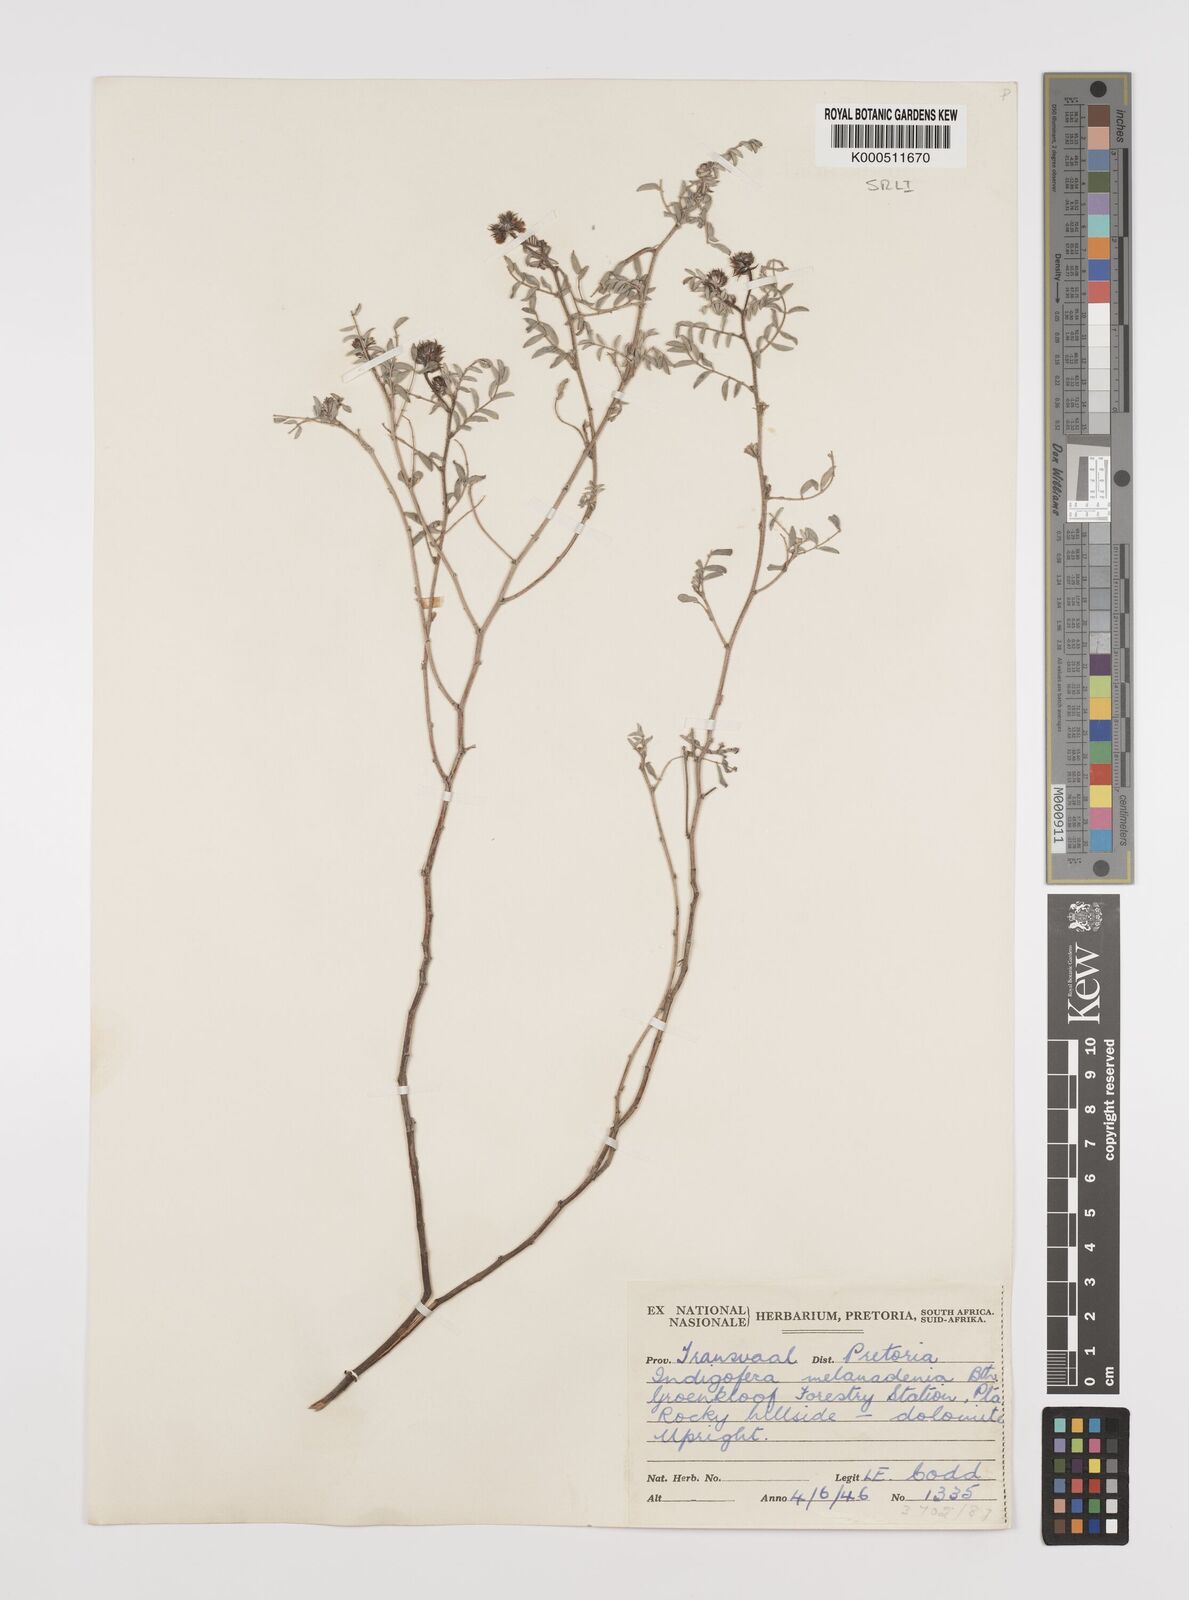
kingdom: Plantae
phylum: Tracheophyta
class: Magnoliopsida
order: Fabales
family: Fabaceae
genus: Indigofera
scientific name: Indigofera melanadenia
